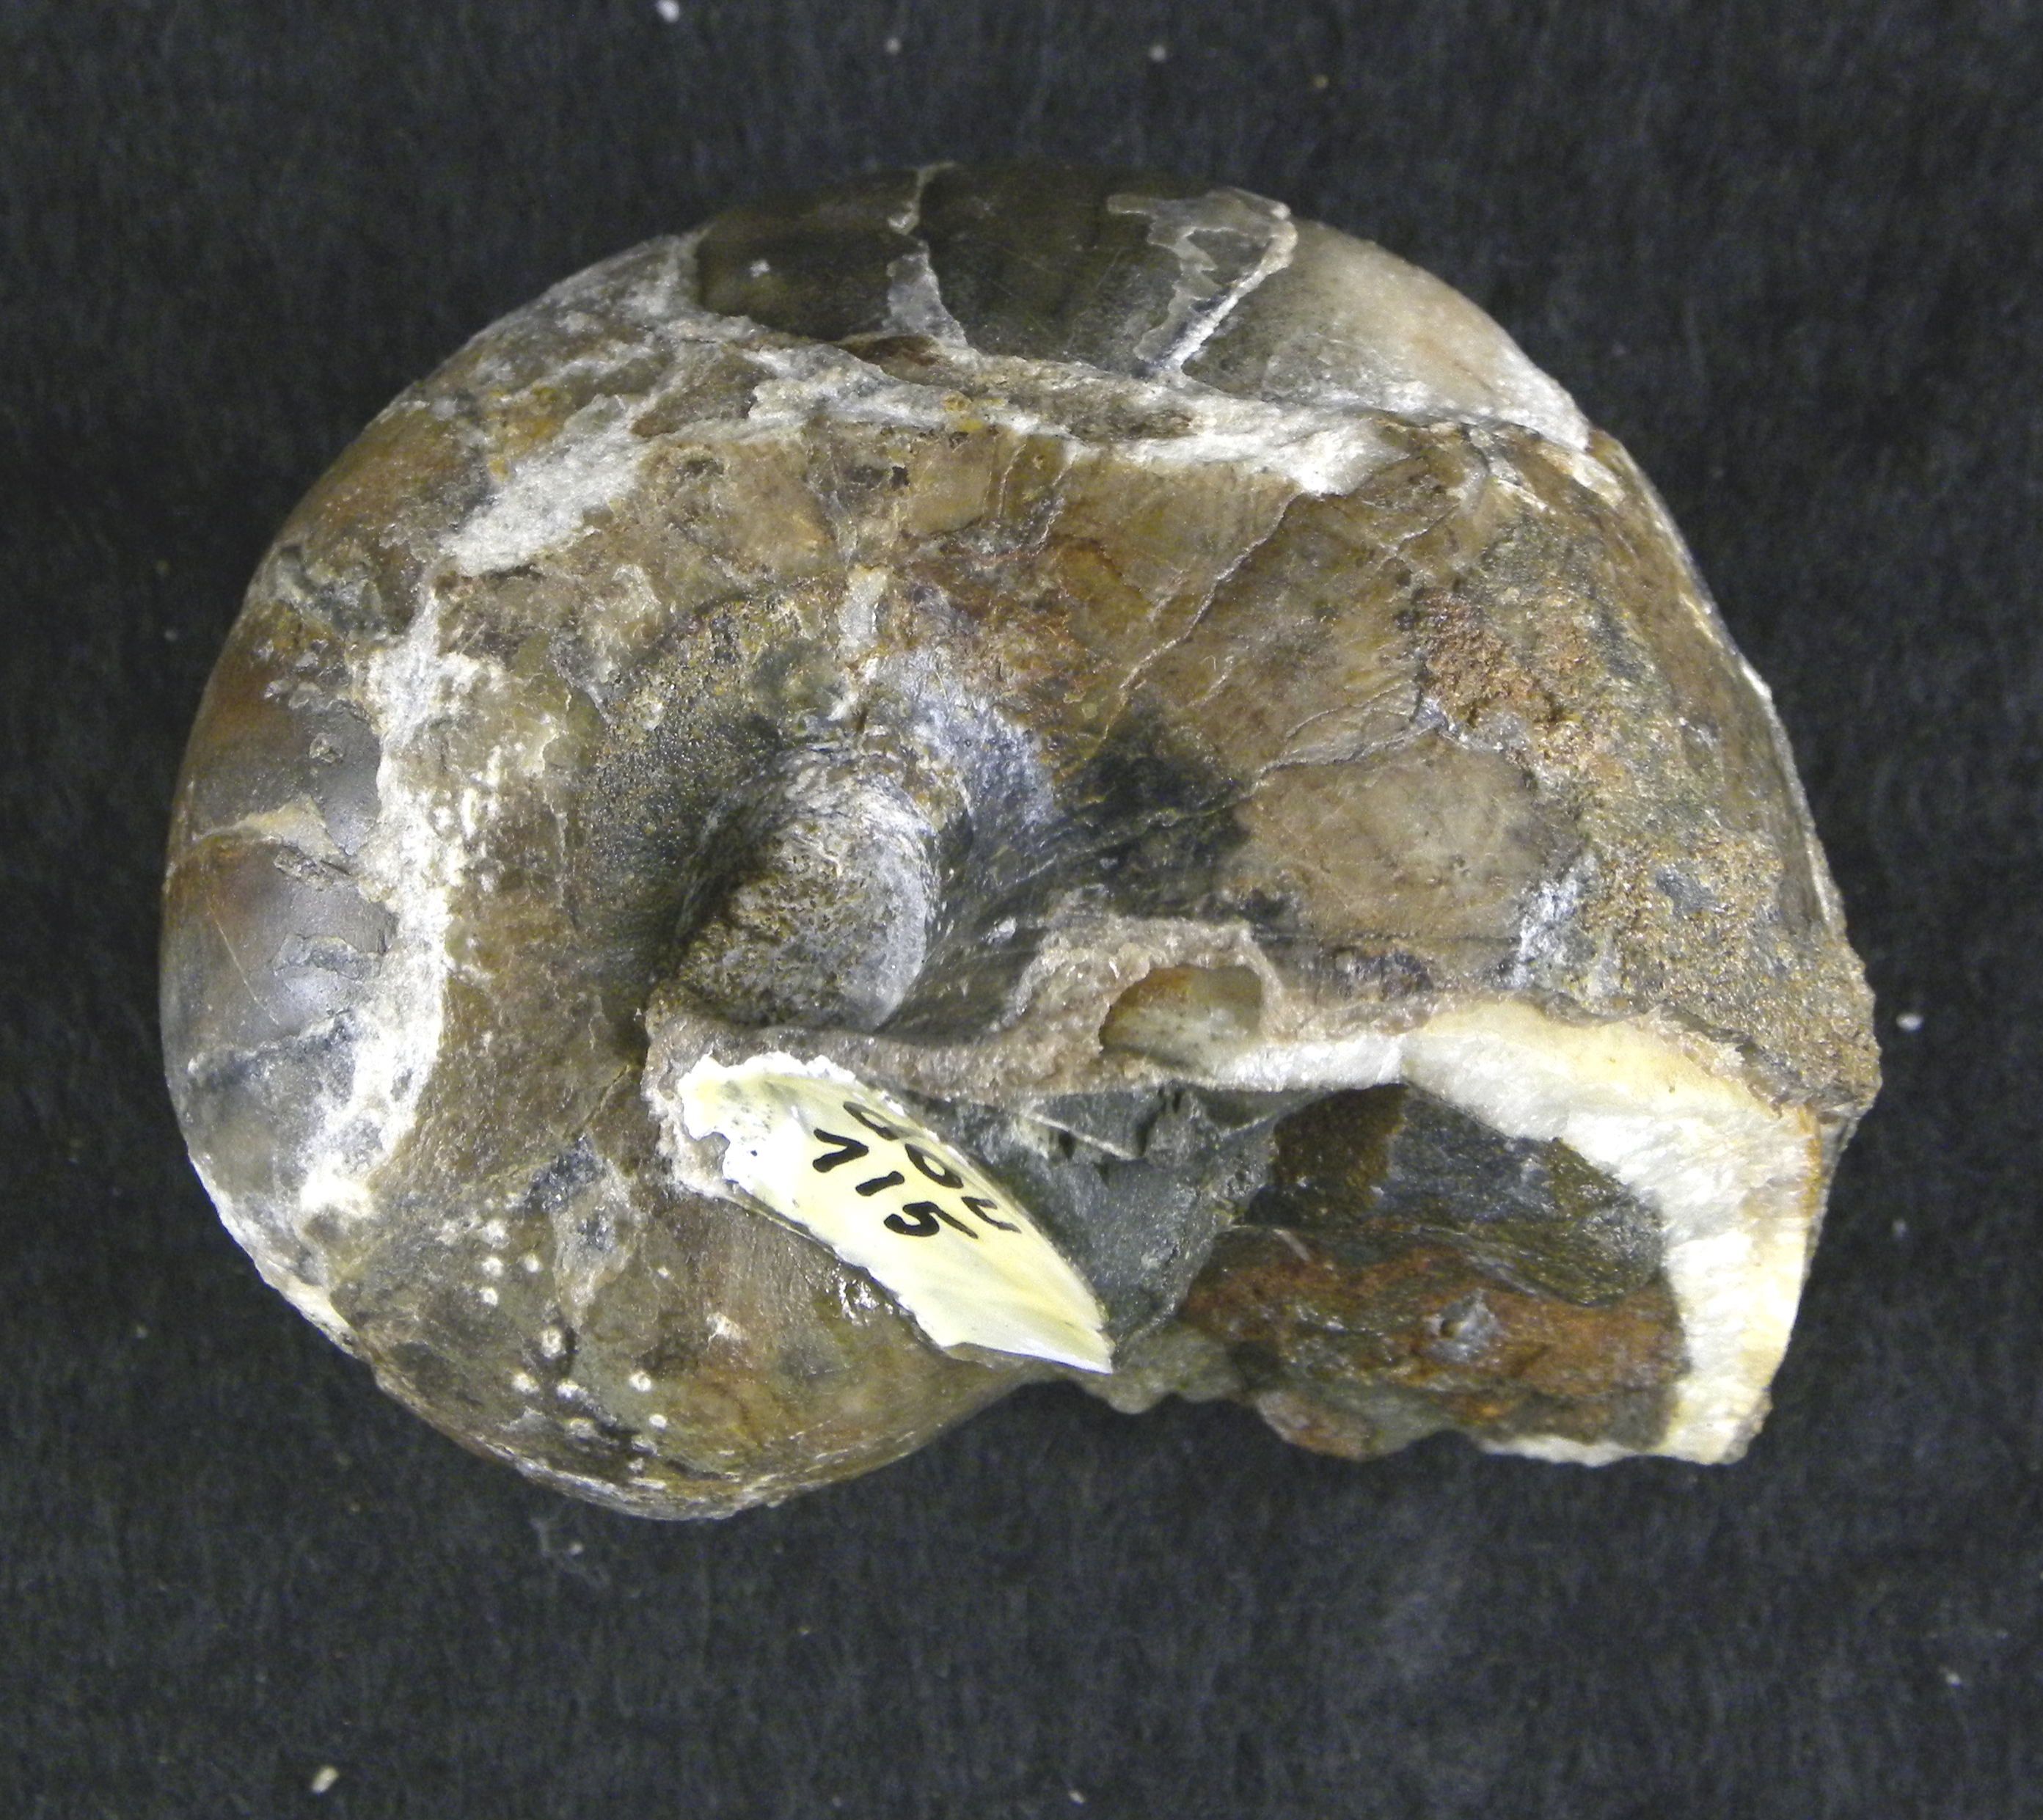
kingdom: Animalia
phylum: Mollusca
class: Cephalopoda
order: Nautilida
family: Nautilidae
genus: Cenoceras
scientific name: Cenoceras
